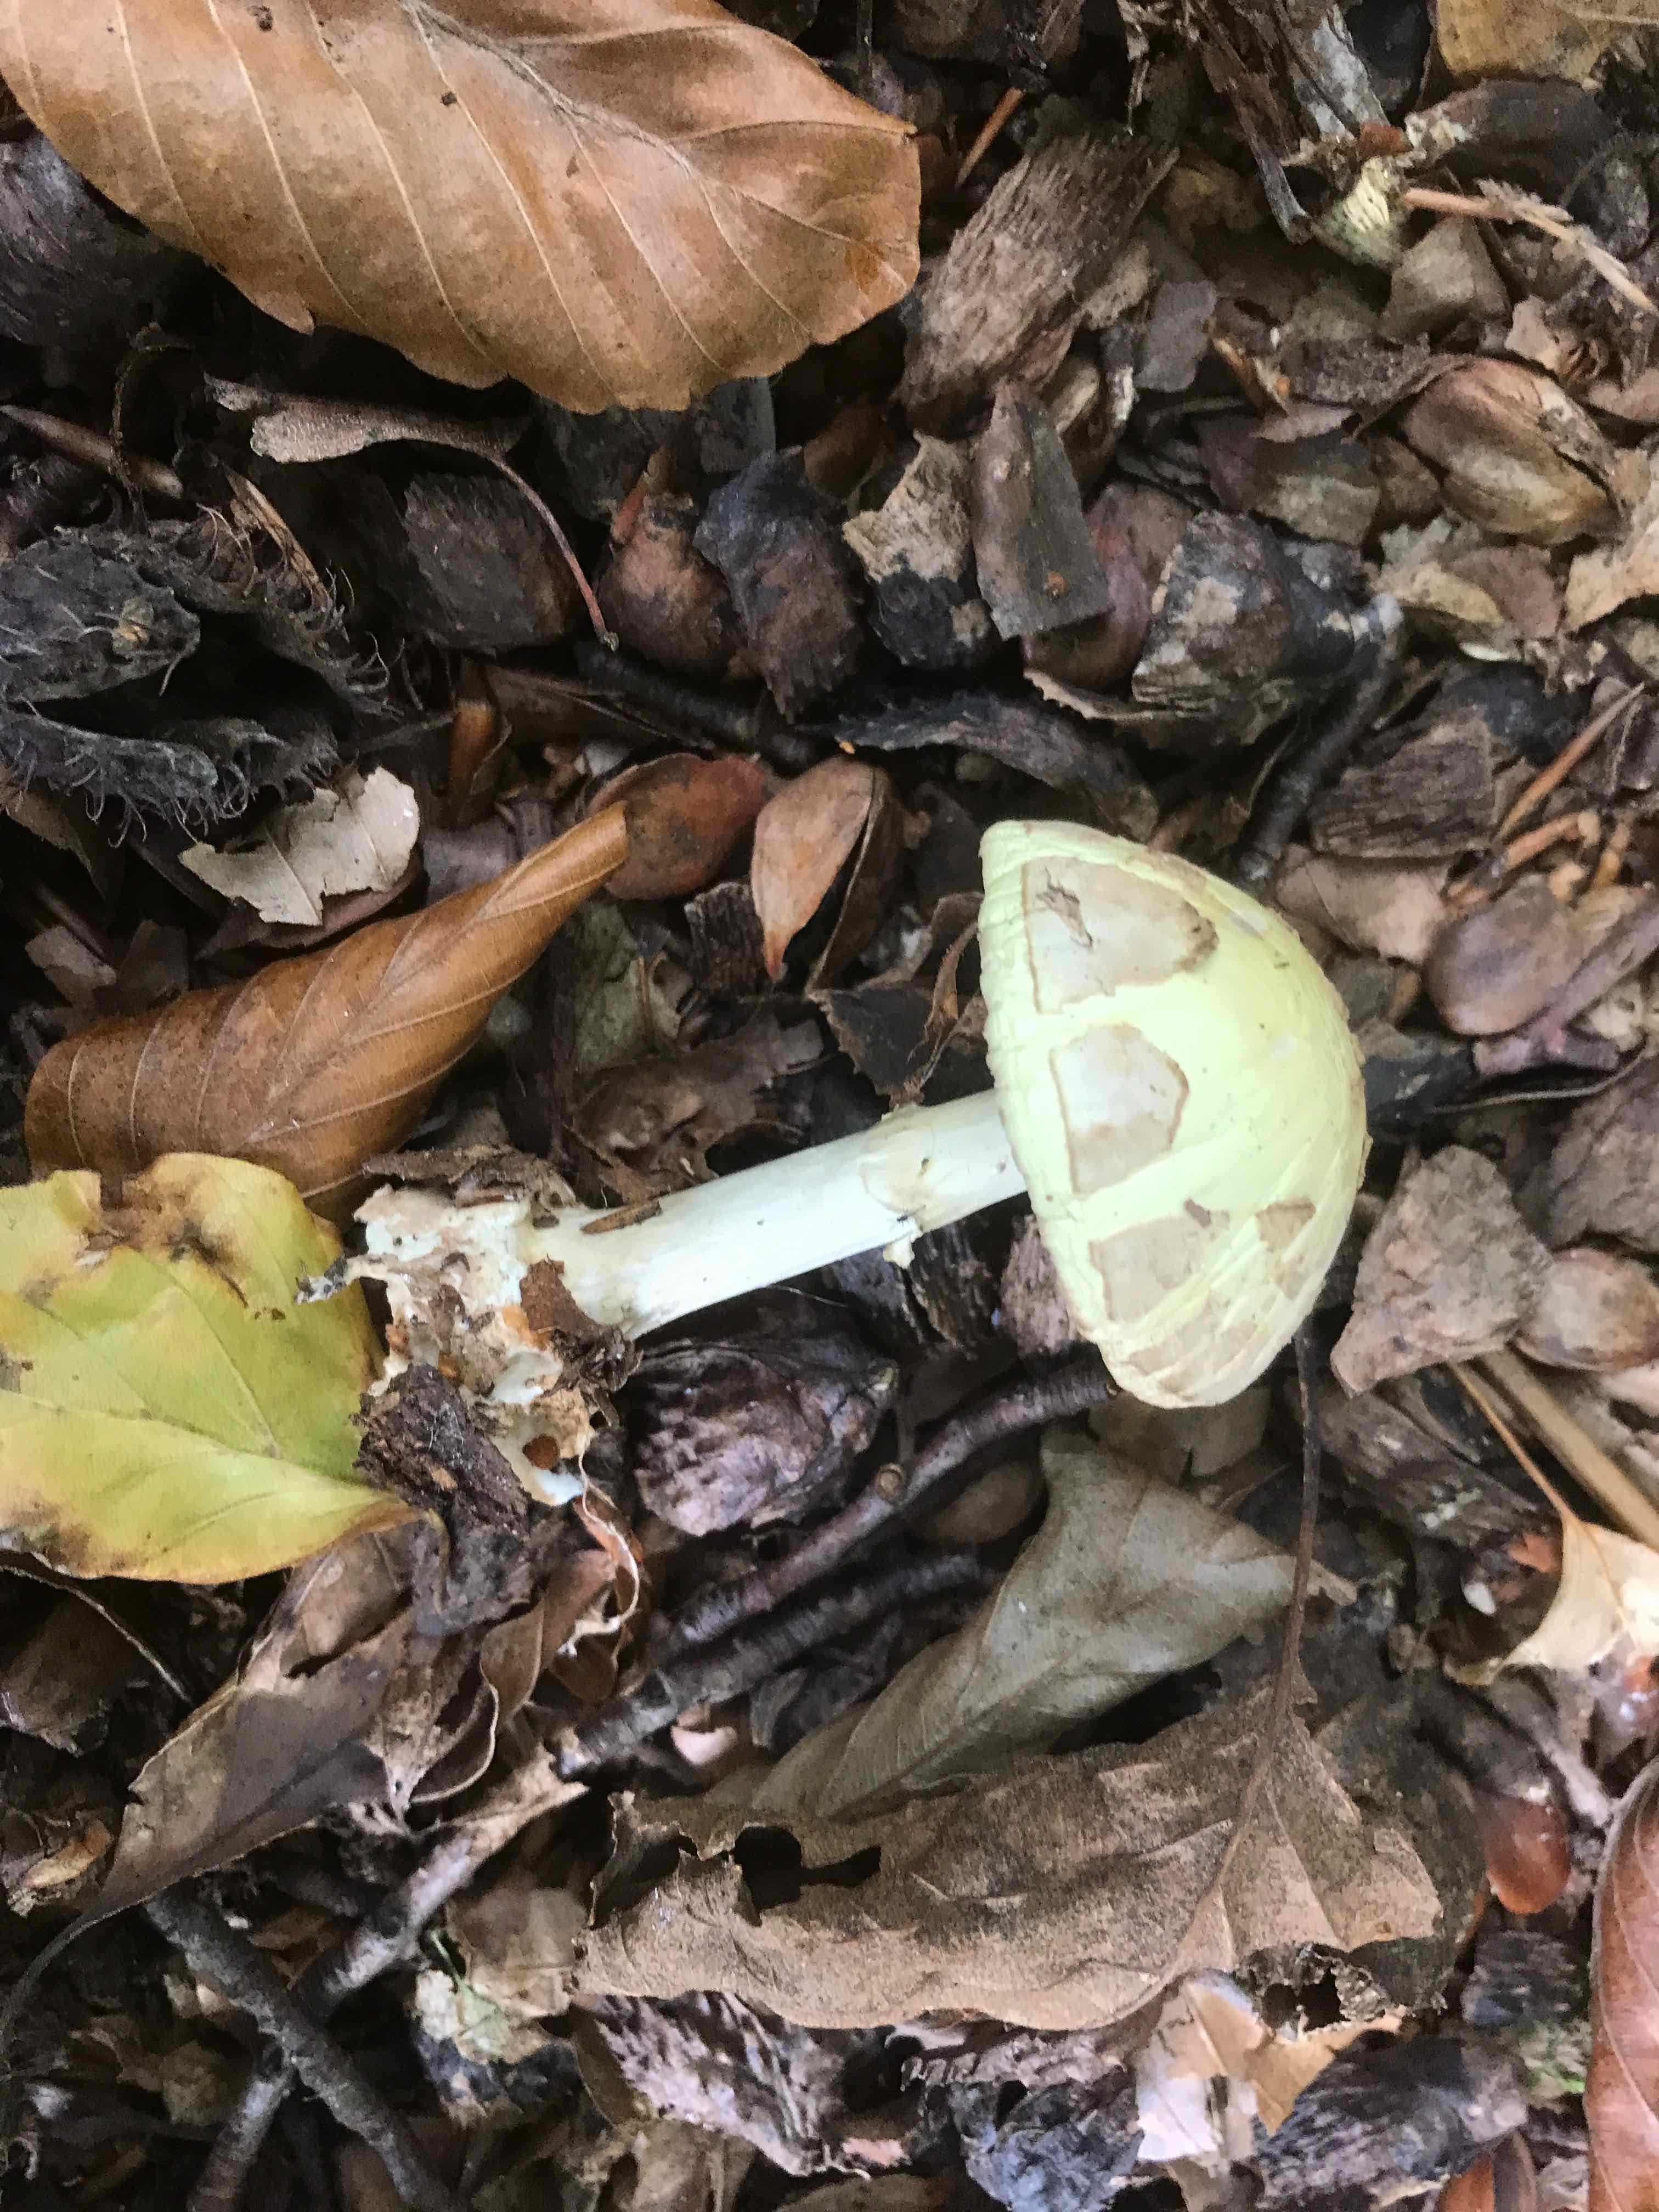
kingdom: Fungi
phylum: Basidiomycota
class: Agaricomycetes
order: Agaricales
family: Amanitaceae
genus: Amanita
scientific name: Amanita citrina
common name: kugleknoldet fluesvamp
